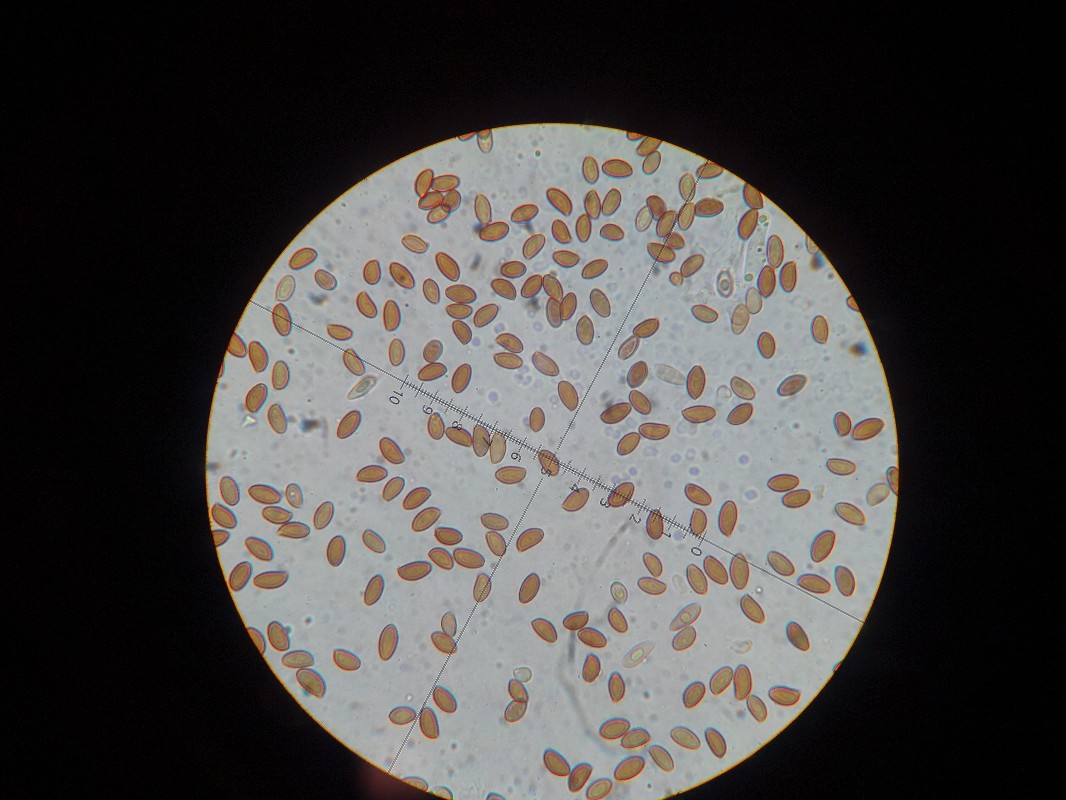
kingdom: Fungi
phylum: Basidiomycota
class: Agaricomycetes
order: Agaricales
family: Hymenogastraceae
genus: Flammula
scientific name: Flammula alnicola
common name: elle-skælhat
